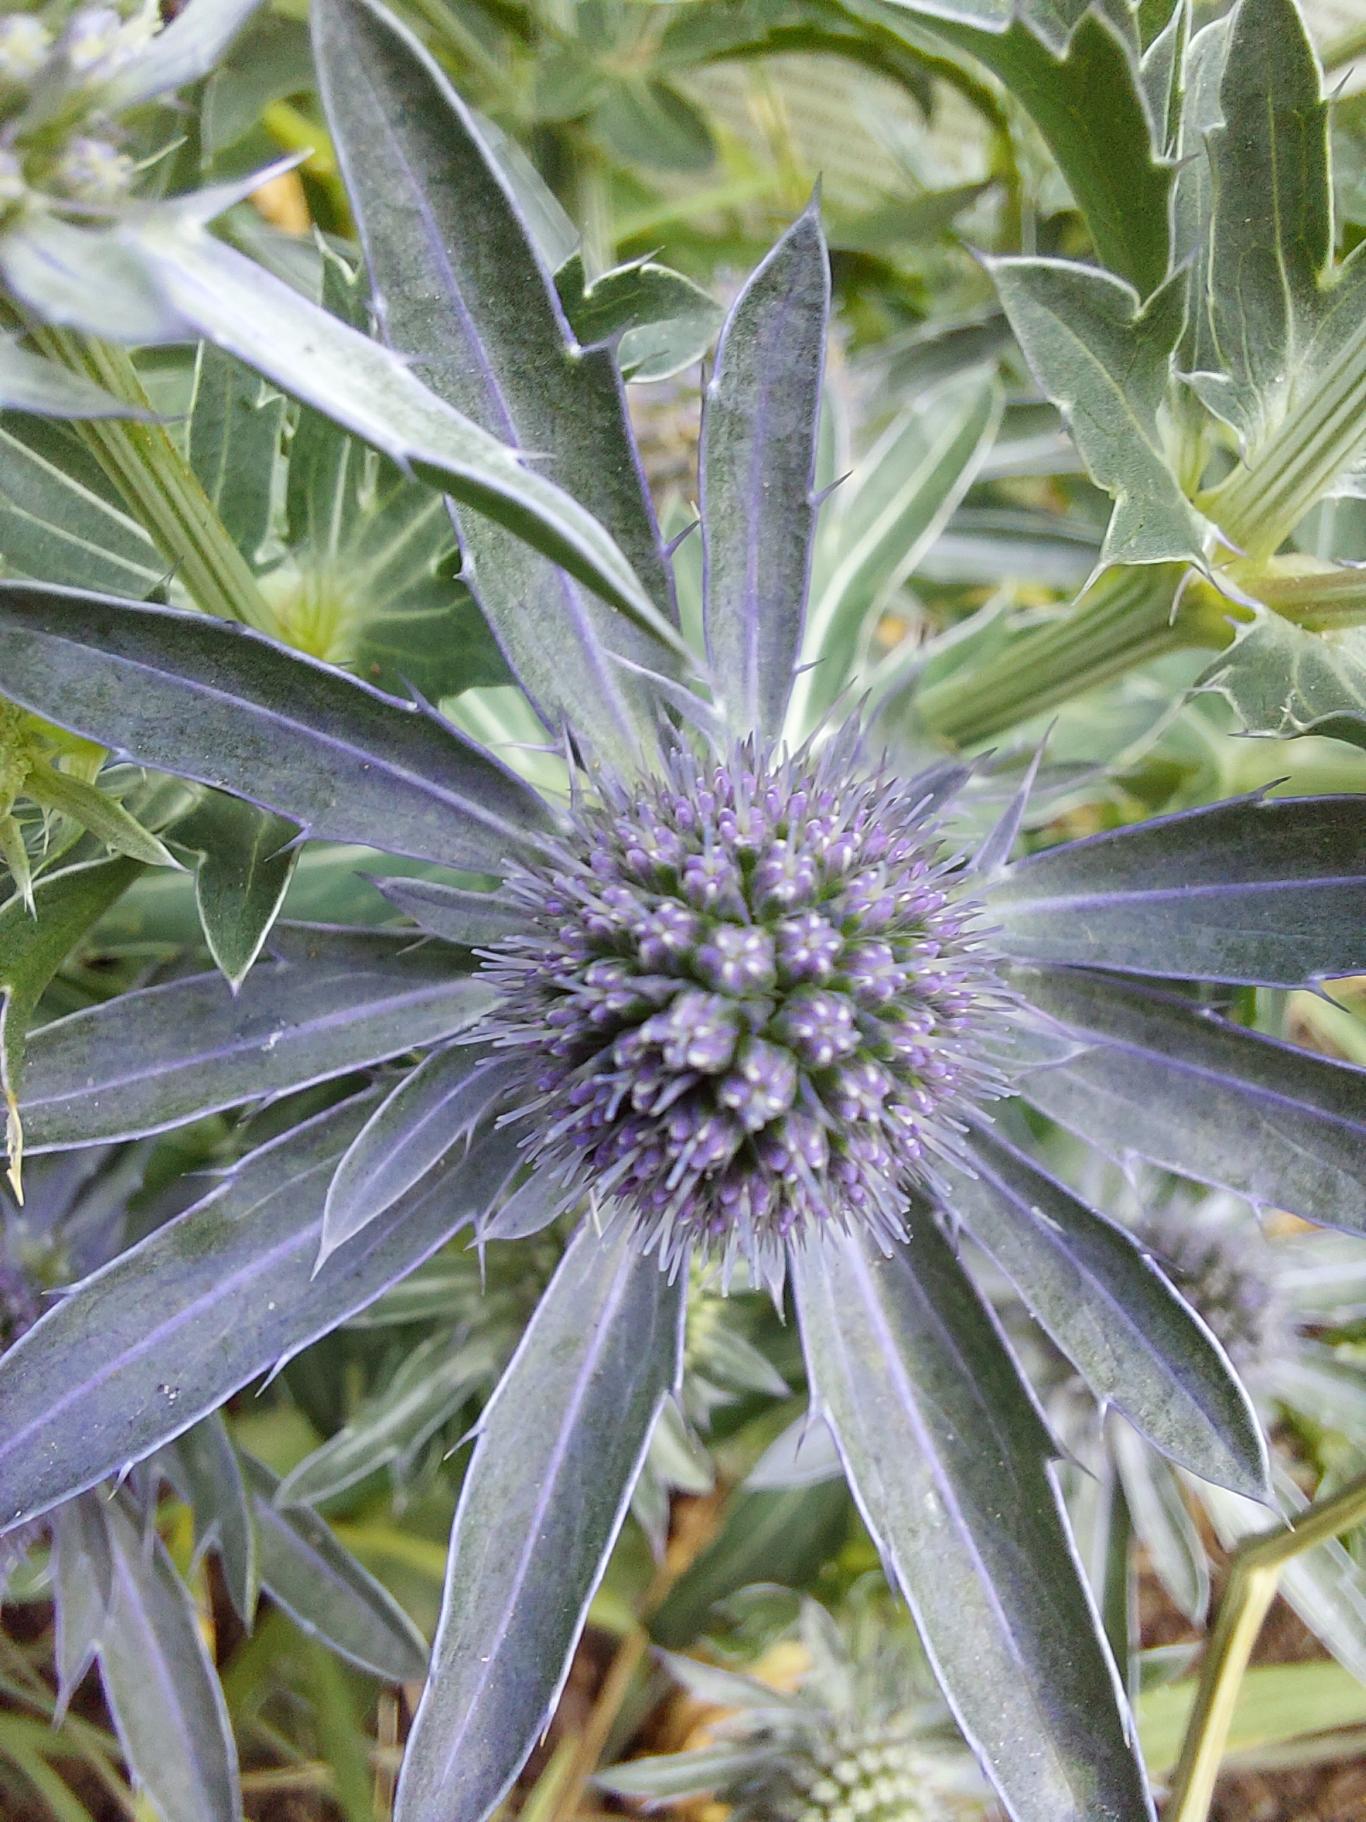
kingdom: Plantae
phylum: Tracheophyta
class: Magnoliopsida
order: Apiales
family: Apiaceae
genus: Eryngium
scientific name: Eryngium
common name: Mandstroslægten
